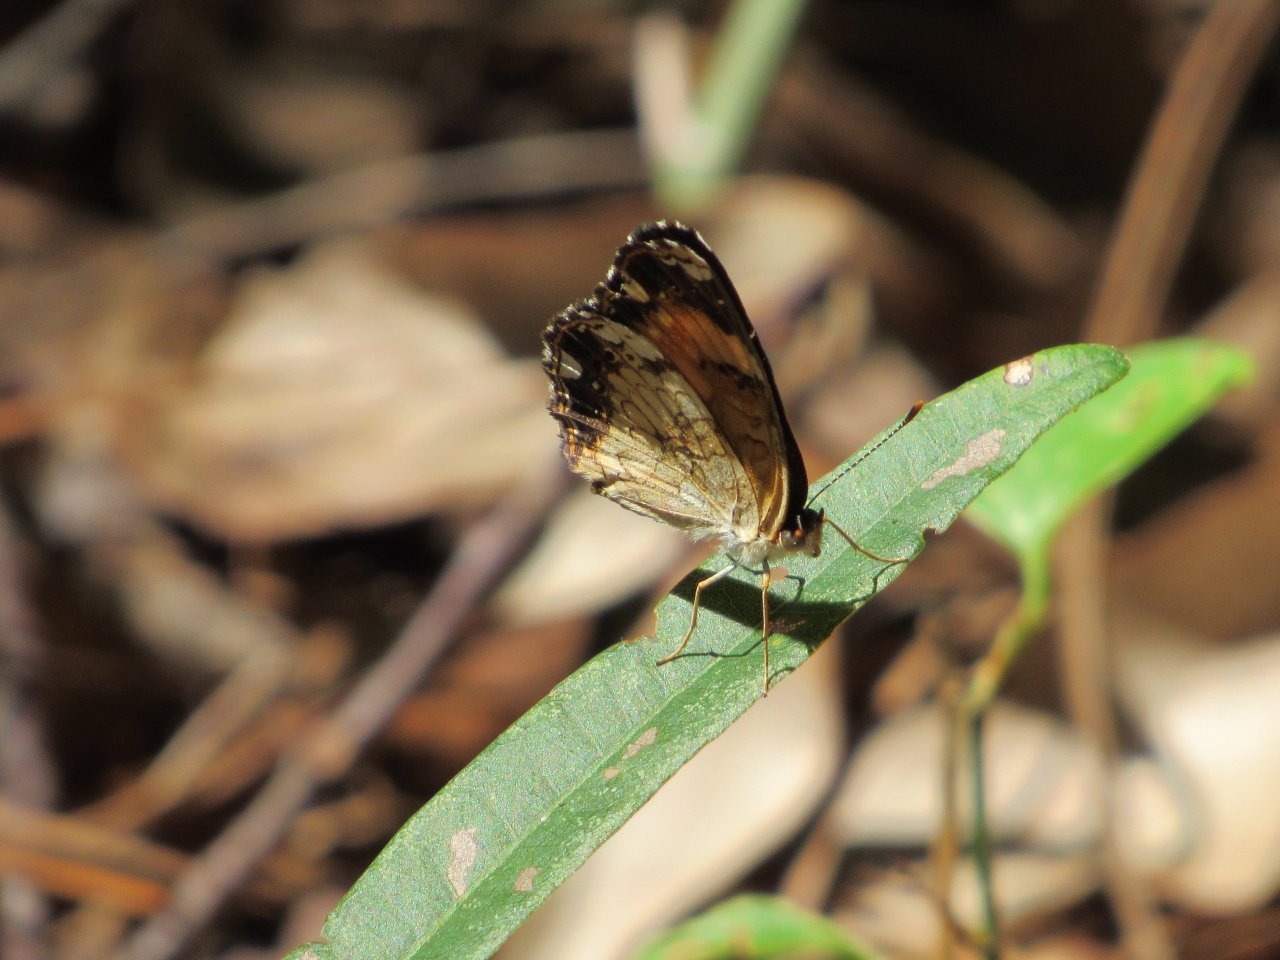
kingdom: Animalia
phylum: Arthropoda
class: Insecta
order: Lepidoptera
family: Nymphalidae
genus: Phyciodes
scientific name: Phyciodes tharos
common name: Pearl Crescent
